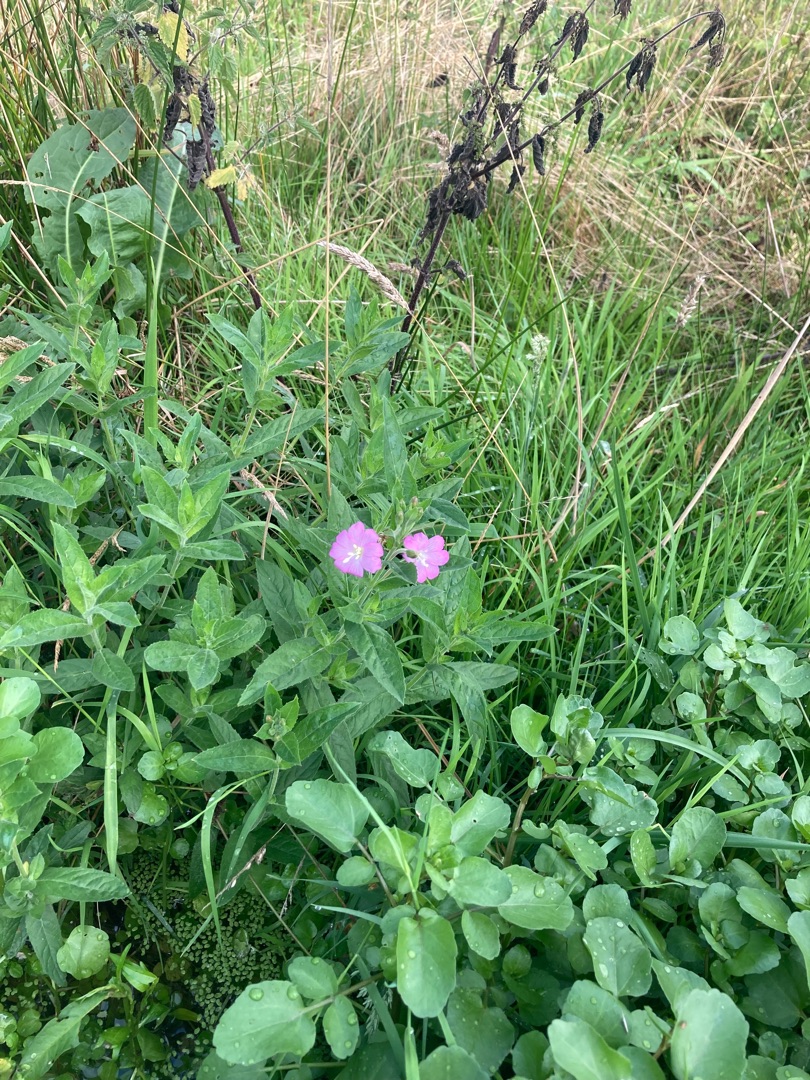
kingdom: Plantae
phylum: Tracheophyta
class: Magnoliopsida
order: Myrtales
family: Onagraceae
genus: Epilobium
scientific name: Epilobium hirsutum
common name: Lådden dueurt
